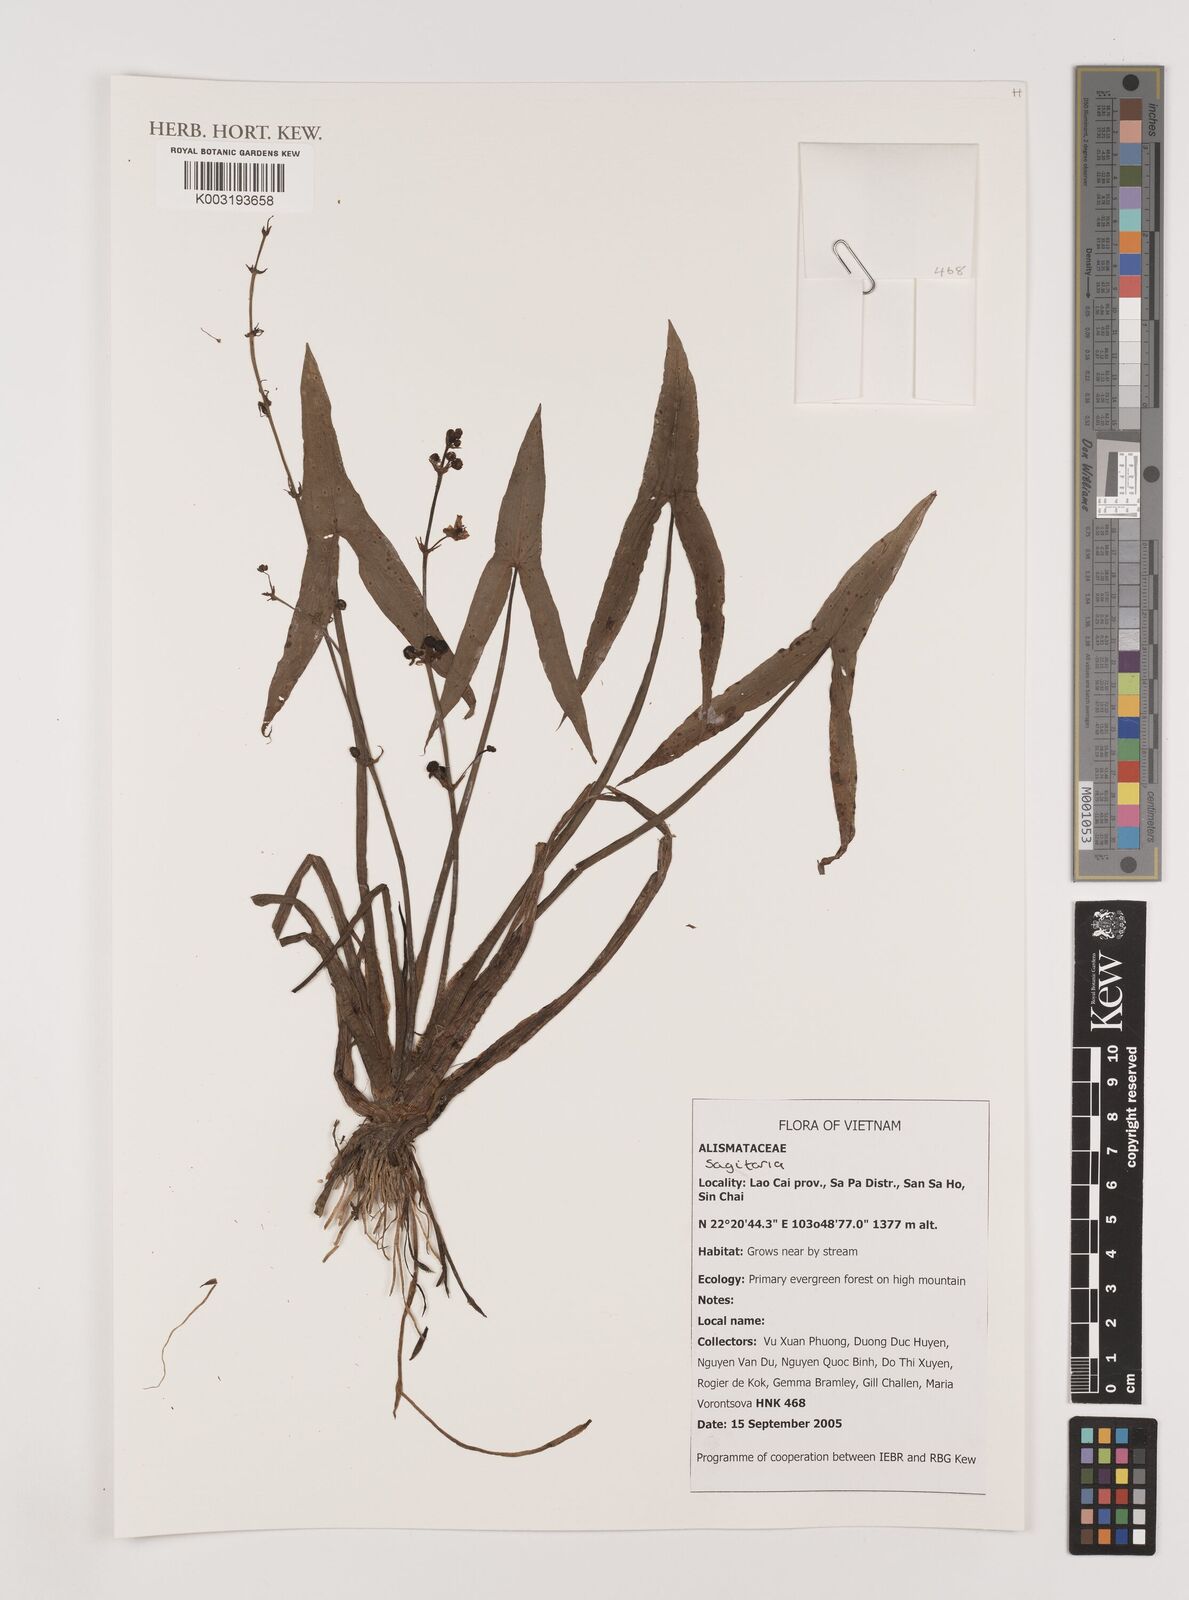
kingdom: Plantae
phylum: Tracheophyta
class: Liliopsida
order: Alismatales
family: Alismataceae
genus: Sagittaria
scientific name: Sagittaria
